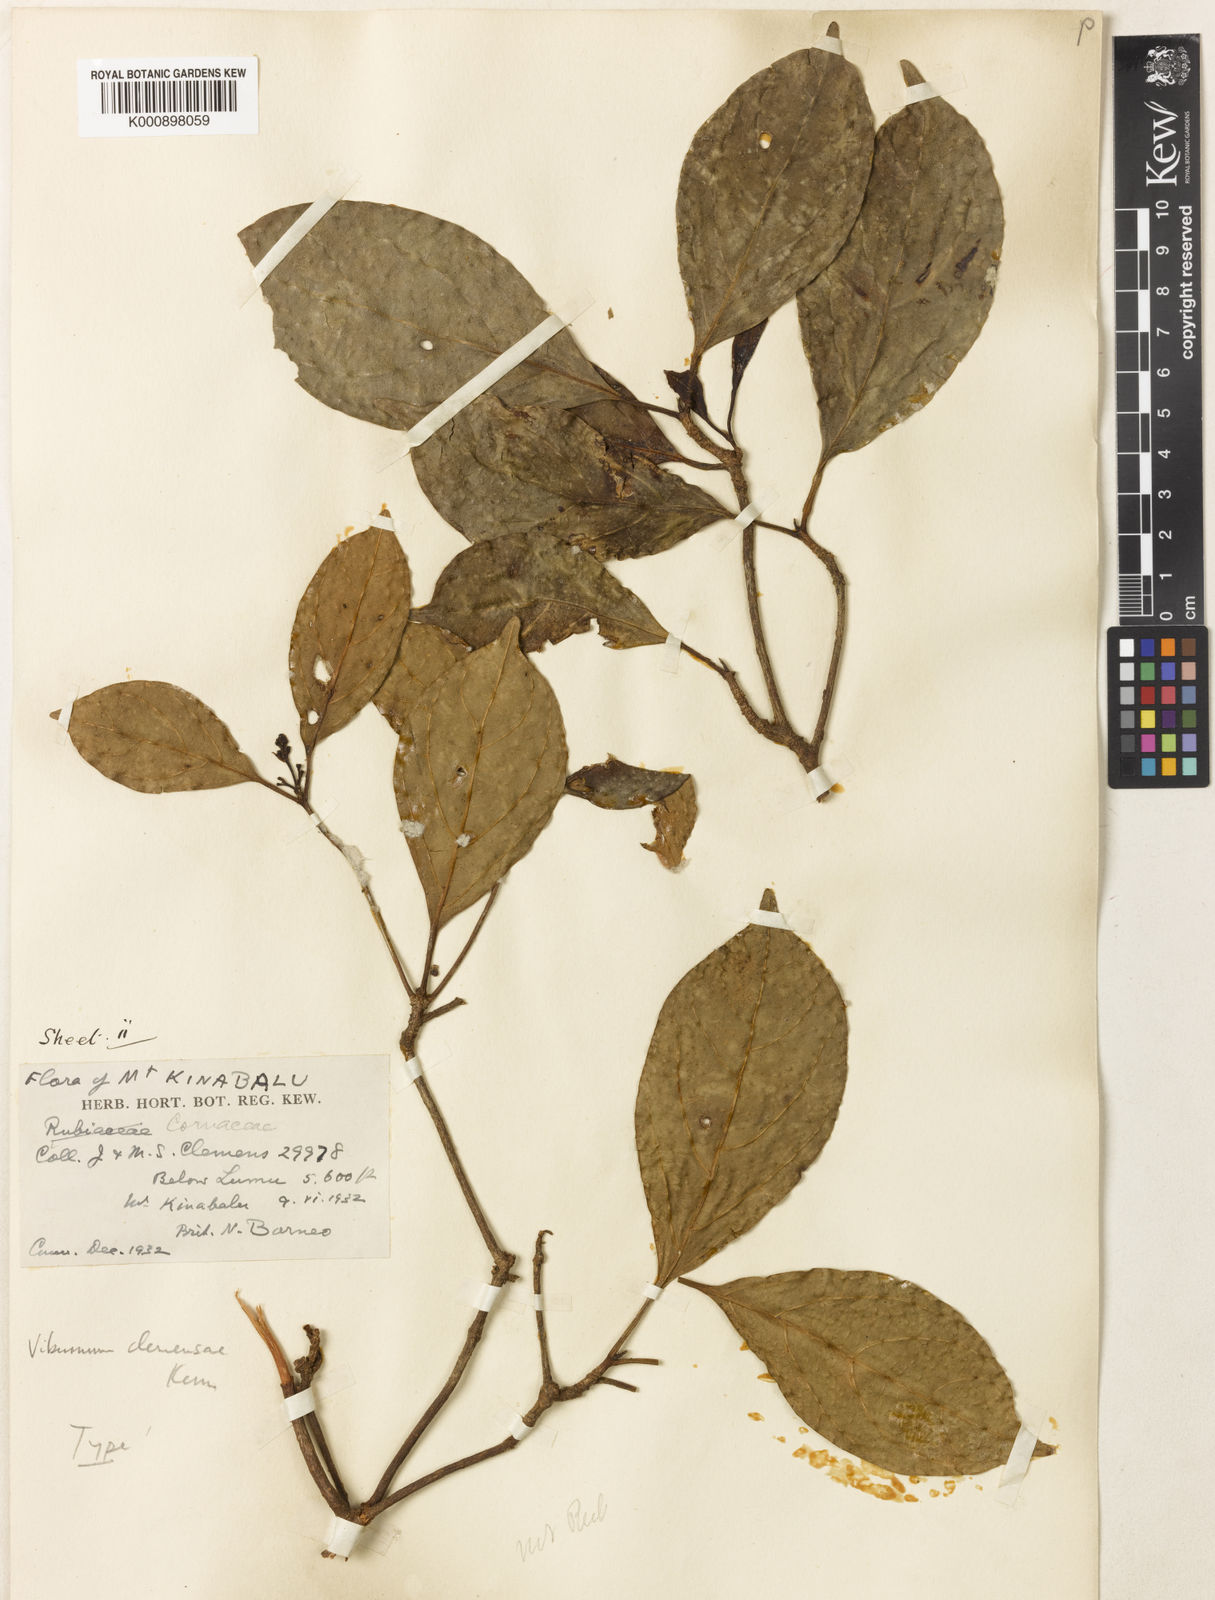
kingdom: Plantae
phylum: Tracheophyta
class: Magnoliopsida
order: Dipsacales
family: Viburnaceae
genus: Viburnum
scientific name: Viburnum clemensiae
